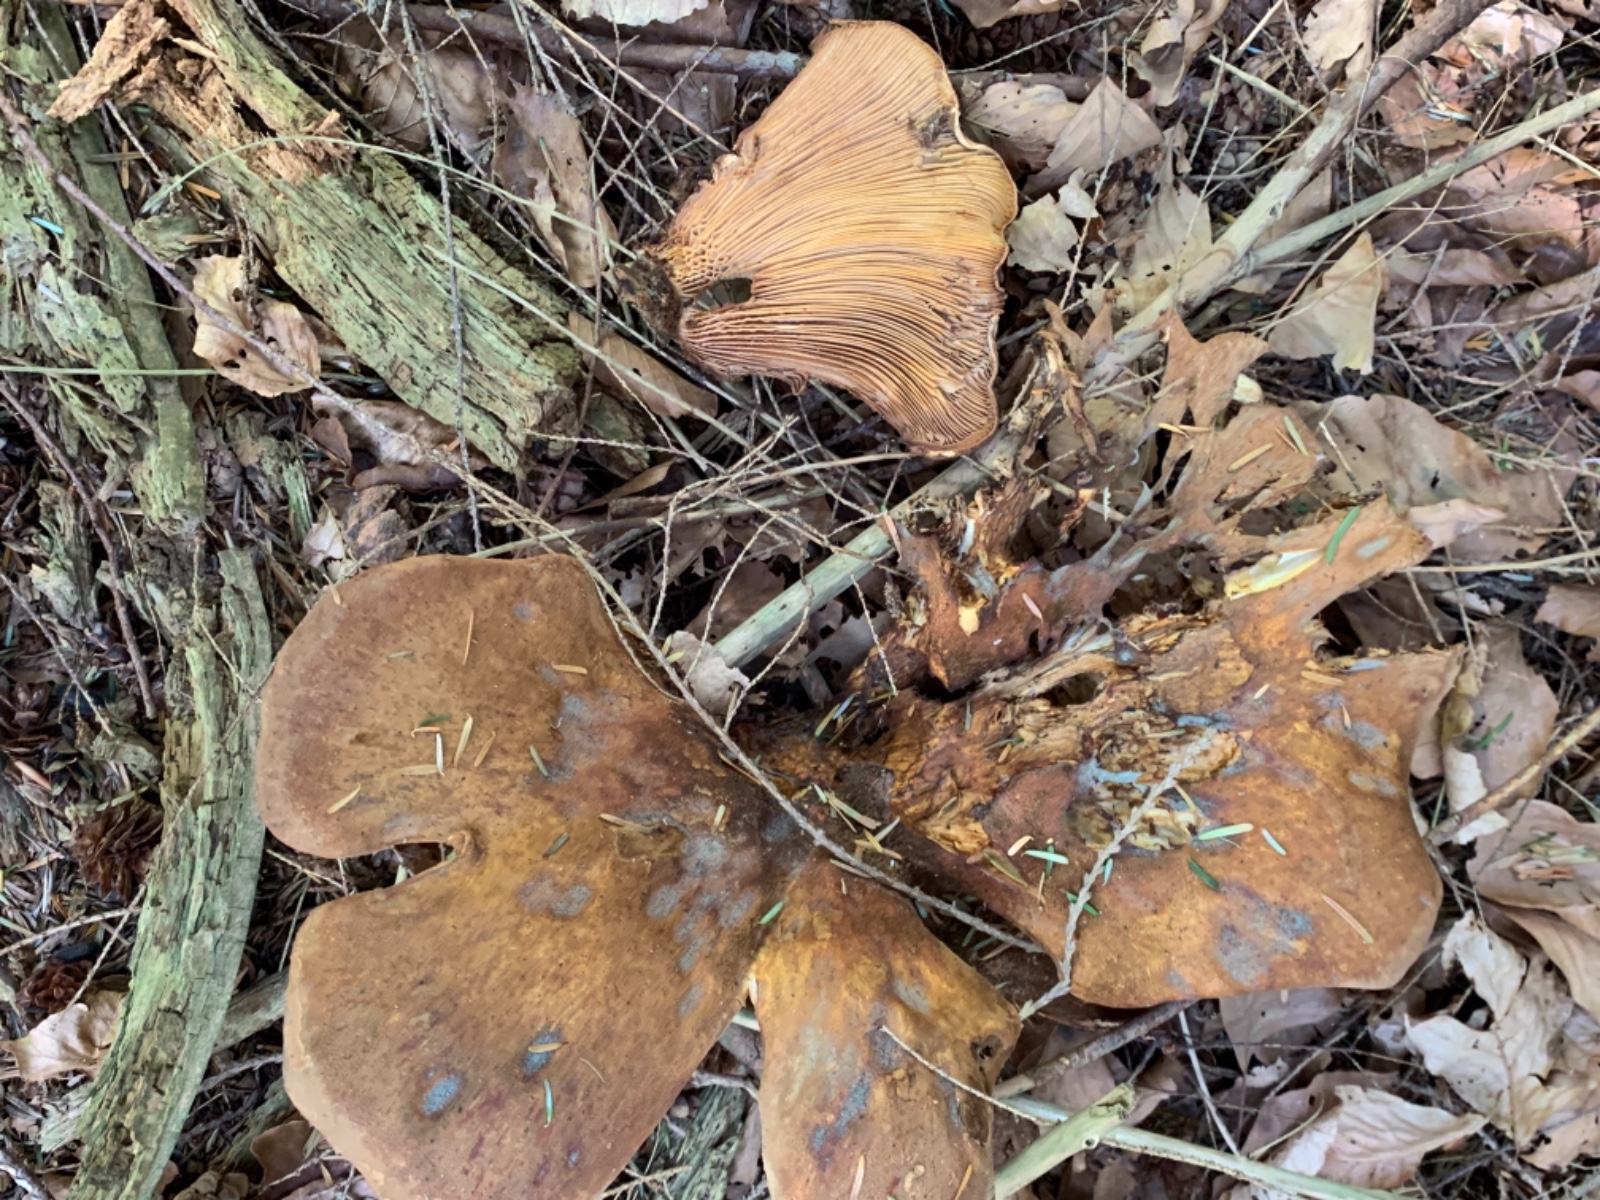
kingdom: Fungi
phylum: Basidiomycota
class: Agaricomycetes
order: Boletales
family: Tapinellaceae
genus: Tapinella
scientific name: Tapinella atrotomentosa
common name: sortfiltet viftesvamp
